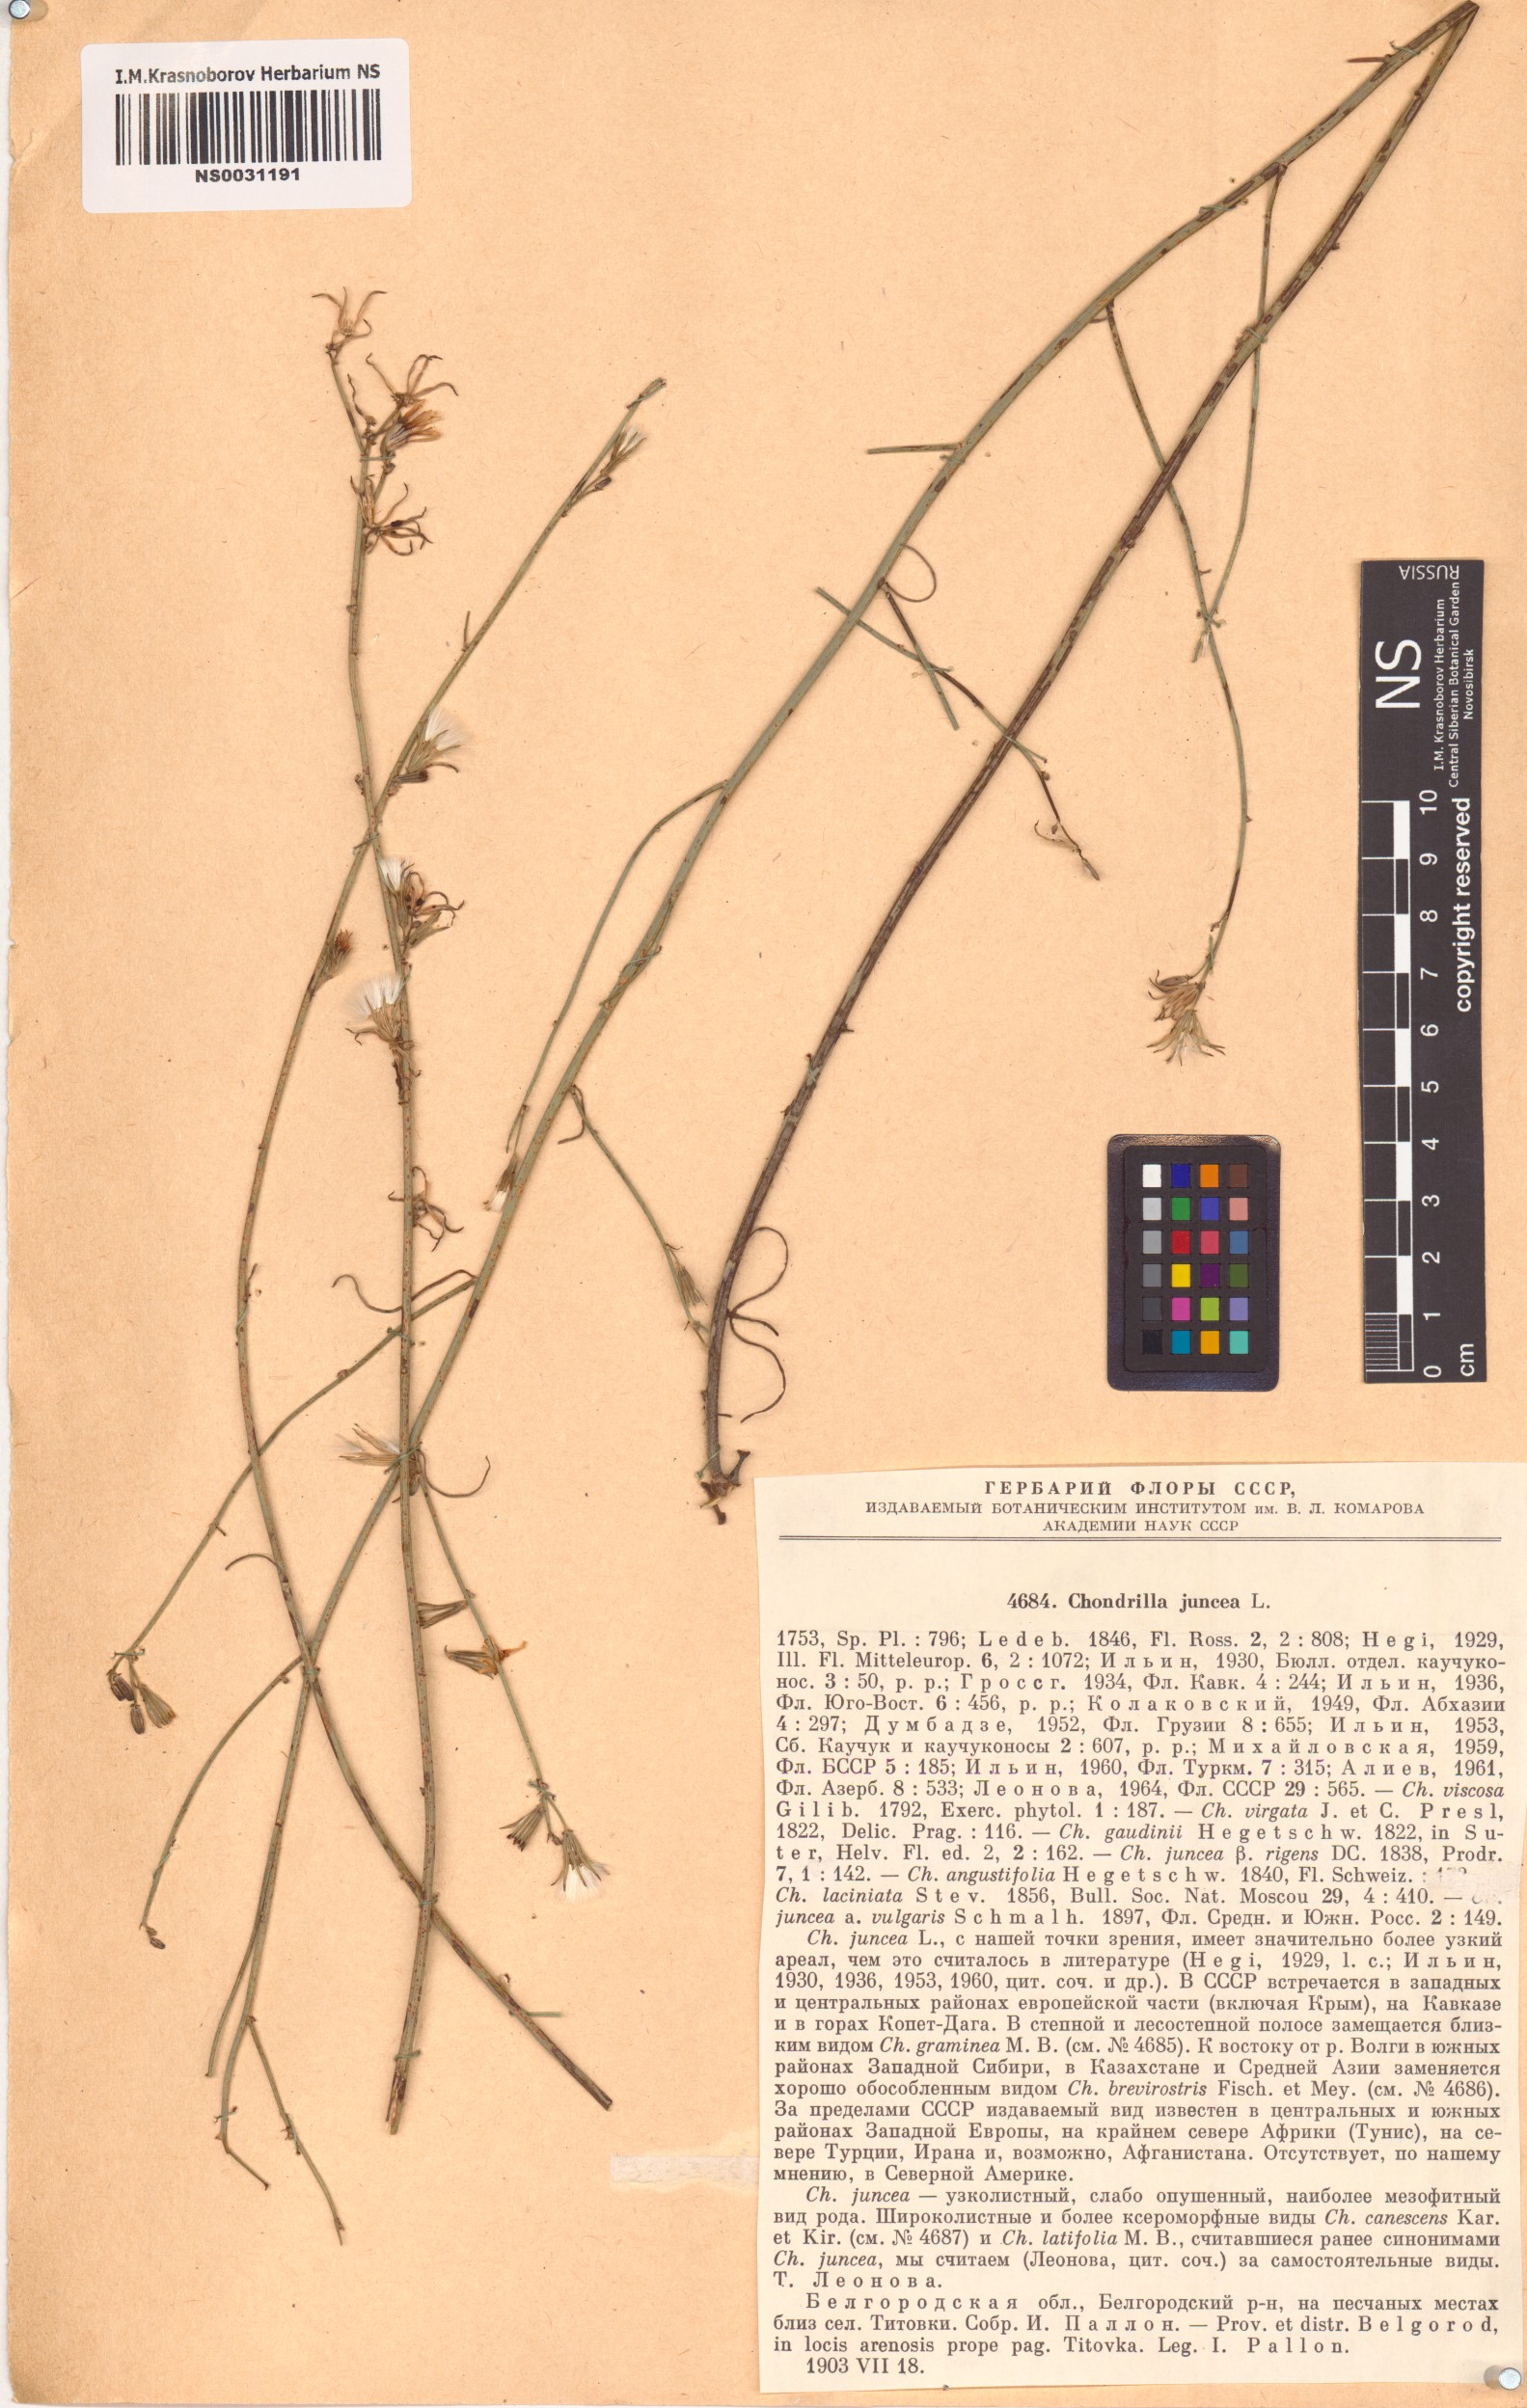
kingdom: Plantae
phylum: Tracheophyta
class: Magnoliopsida
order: Asterales
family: Asteraceae
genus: Chondrilla
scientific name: Chondrilla juncea
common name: Skeleton weed
